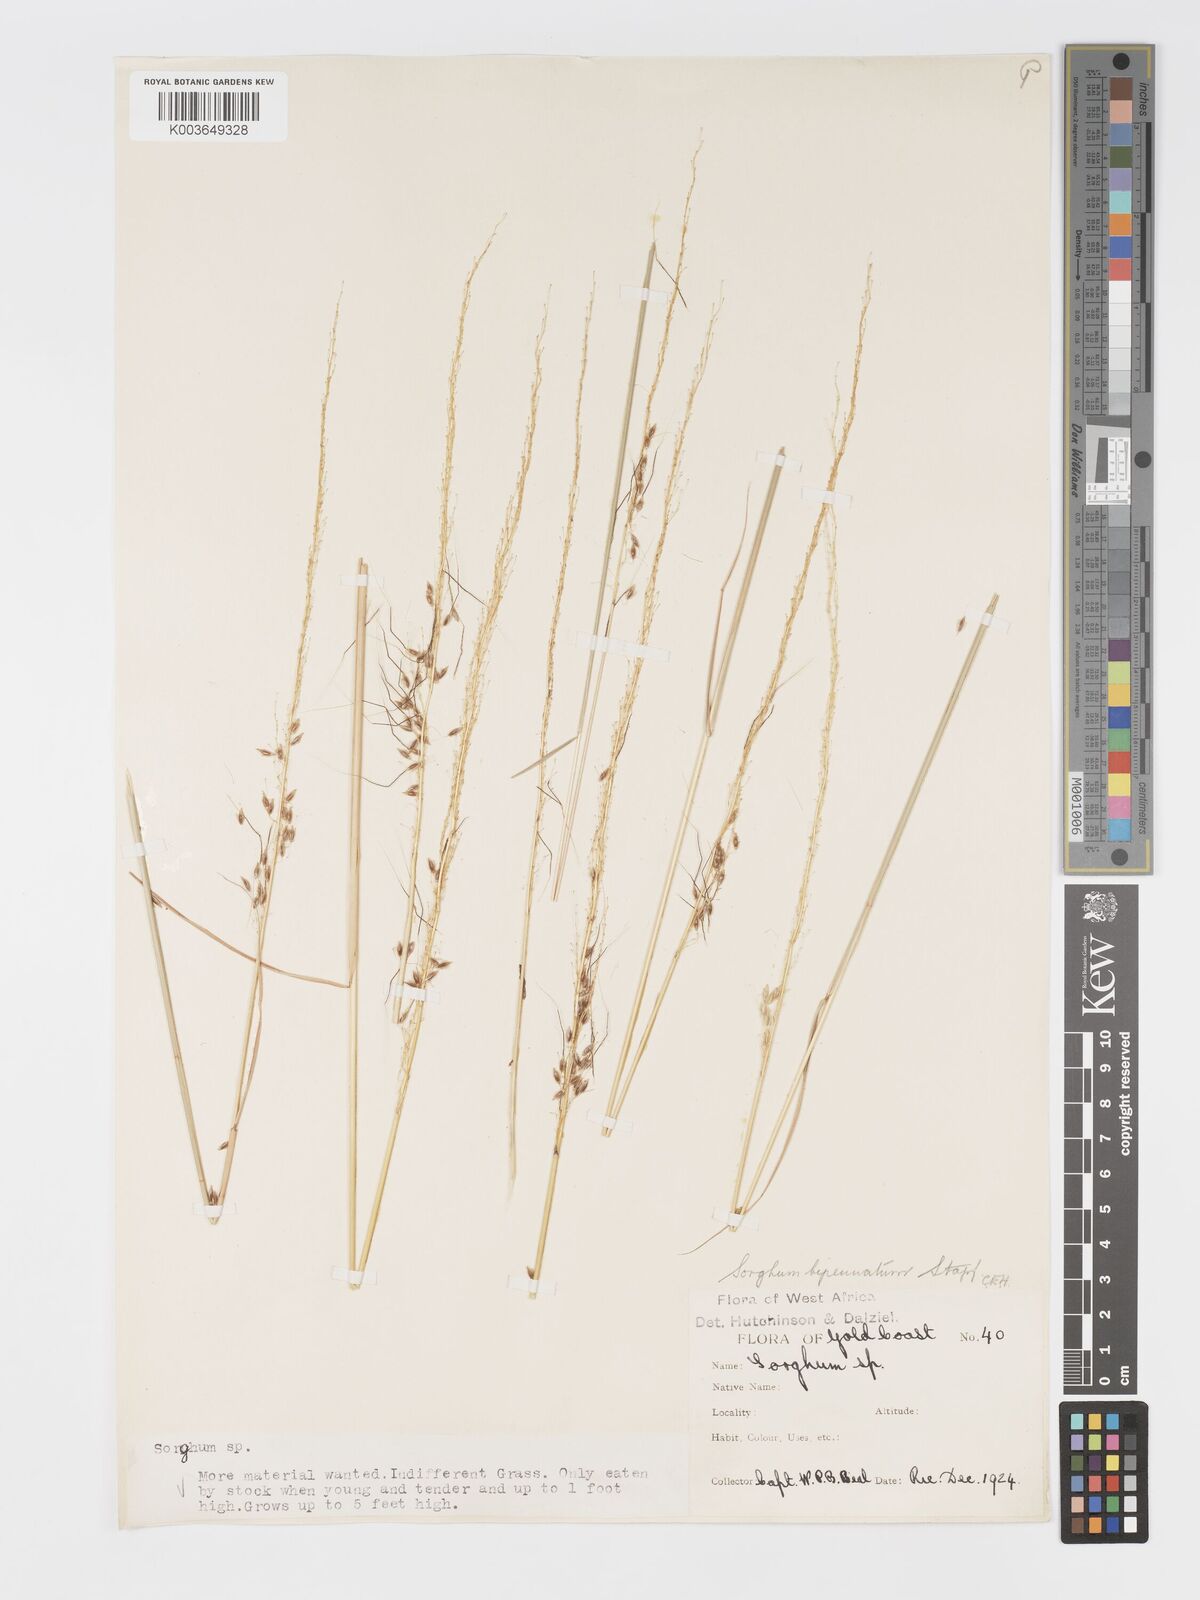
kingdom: Plantae
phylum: Tracheophyta
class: Liliopsida
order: Poales
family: Poaceae
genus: Sorghastrum
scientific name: Sorghastrum incompletum
